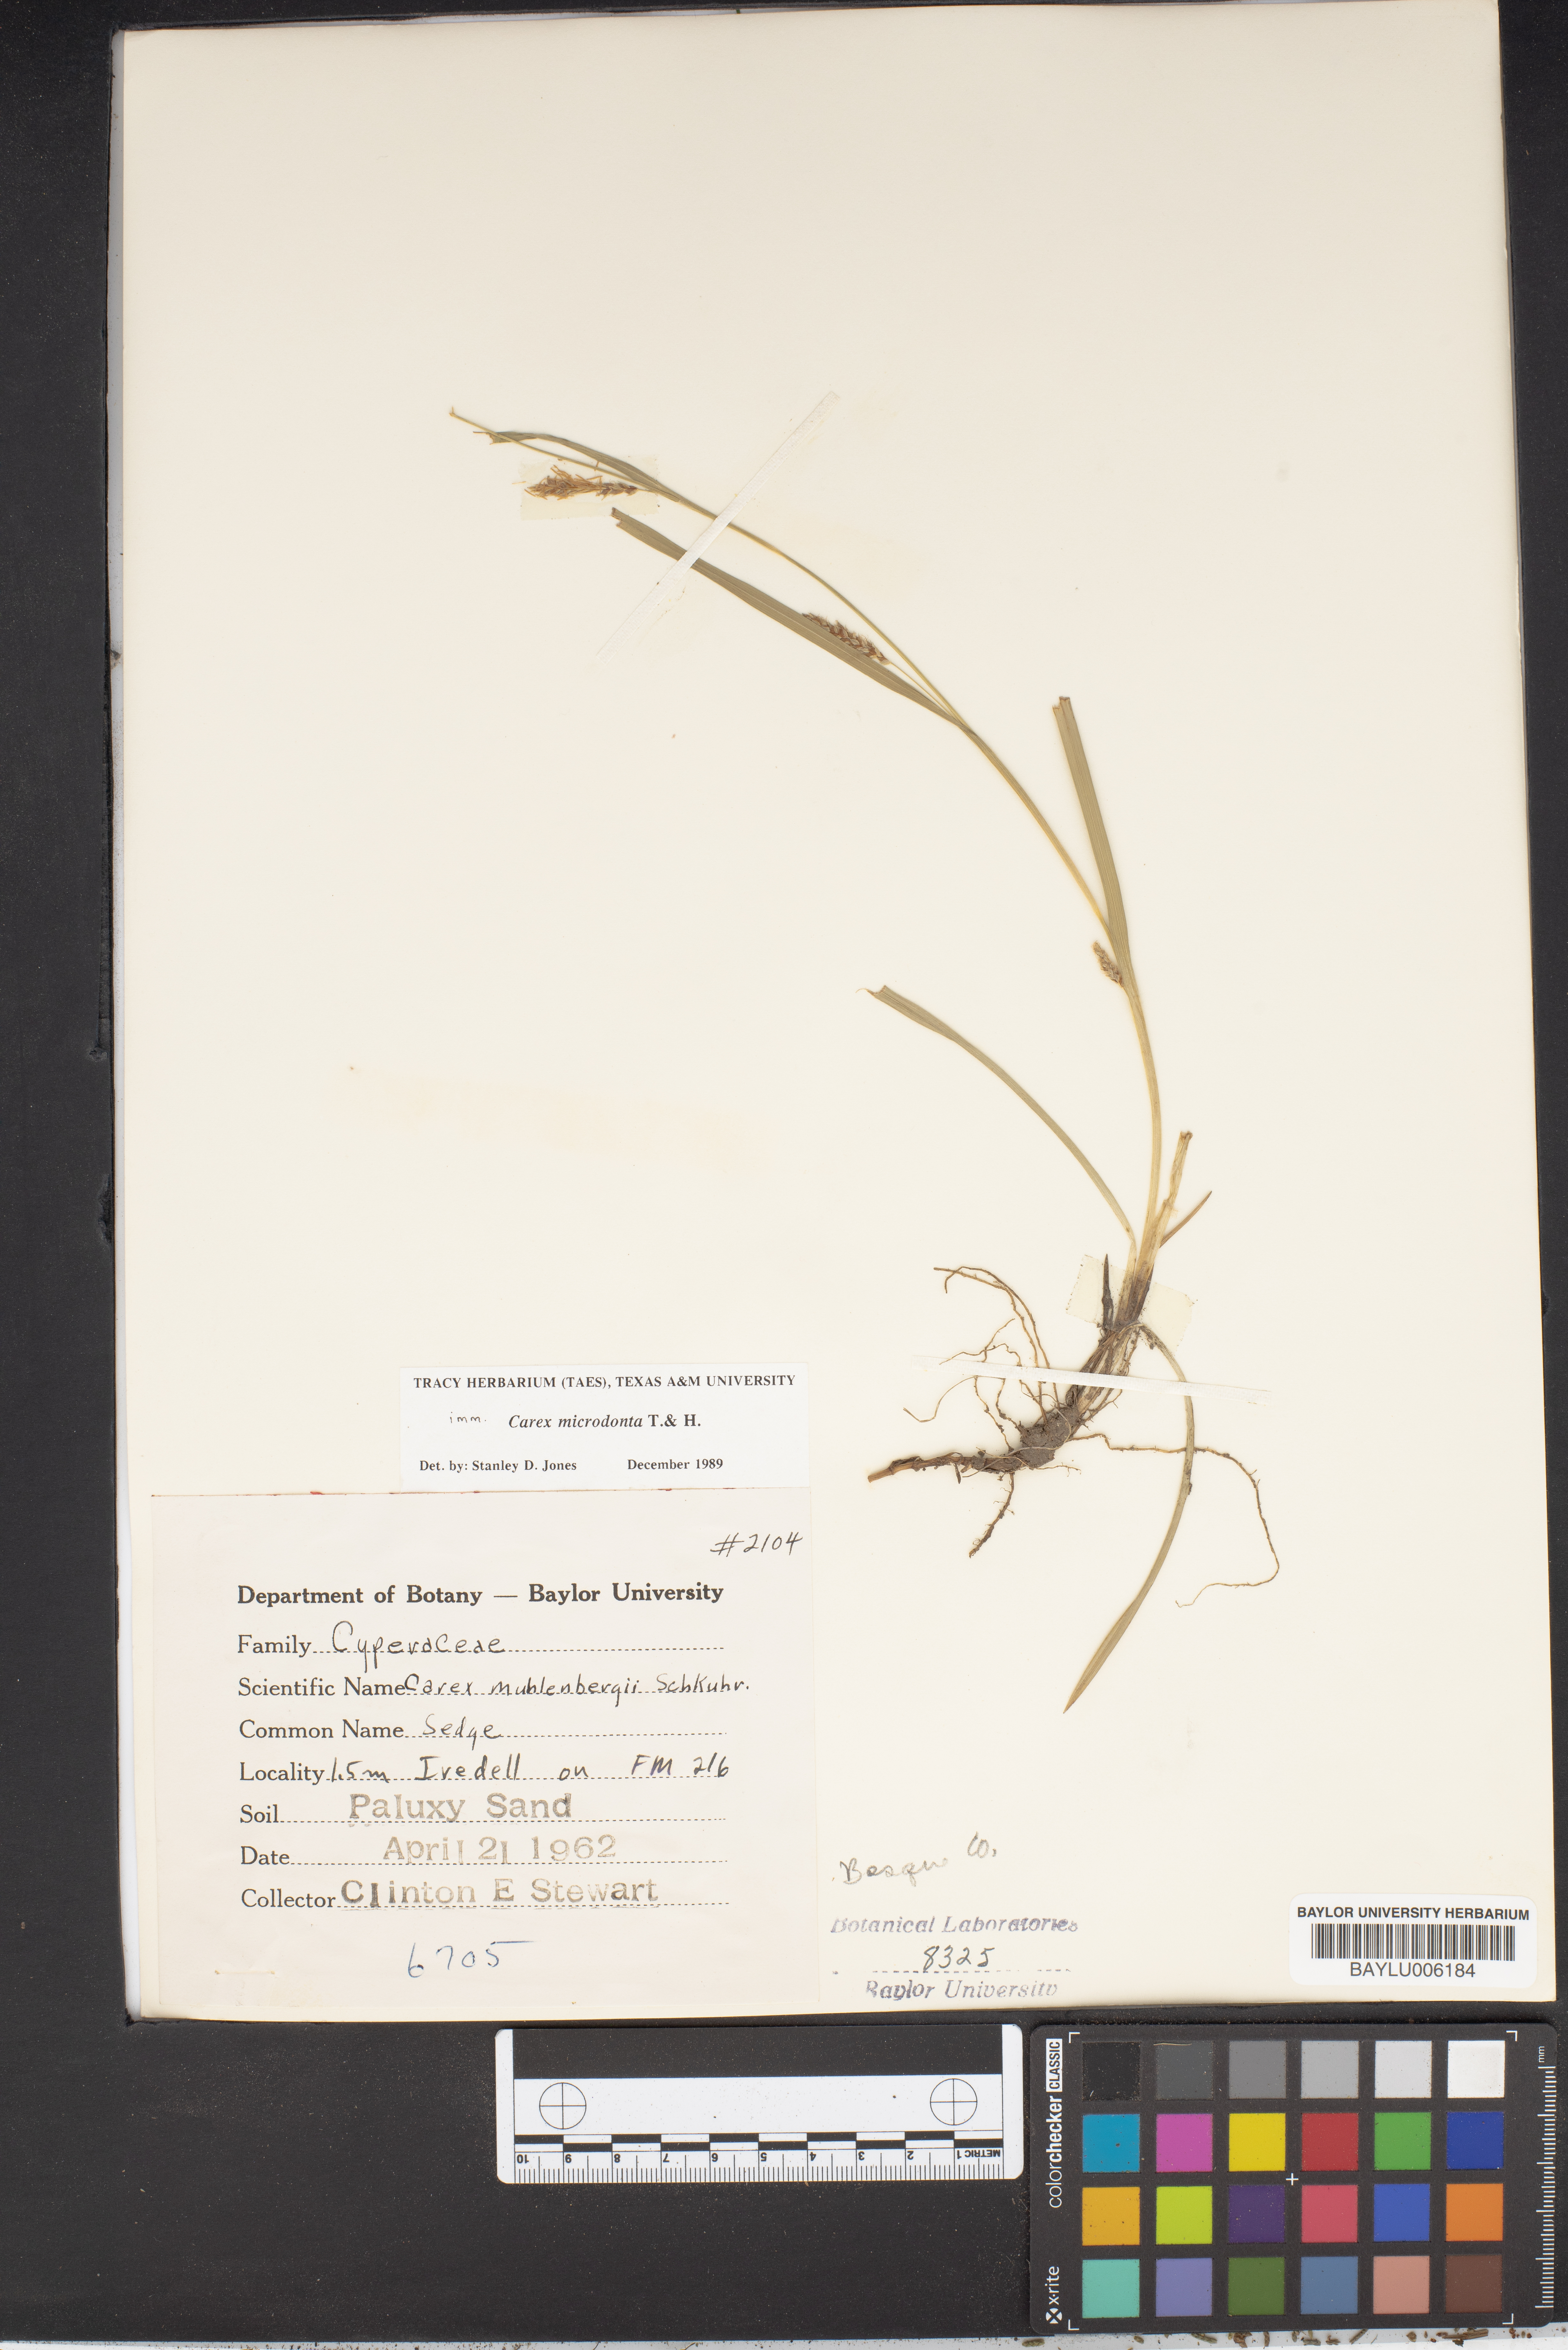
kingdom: Plantae
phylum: Tracheophyta
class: Liliopsida
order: Poales
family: Cyperaceae
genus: Carex
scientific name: Carex microdonta
